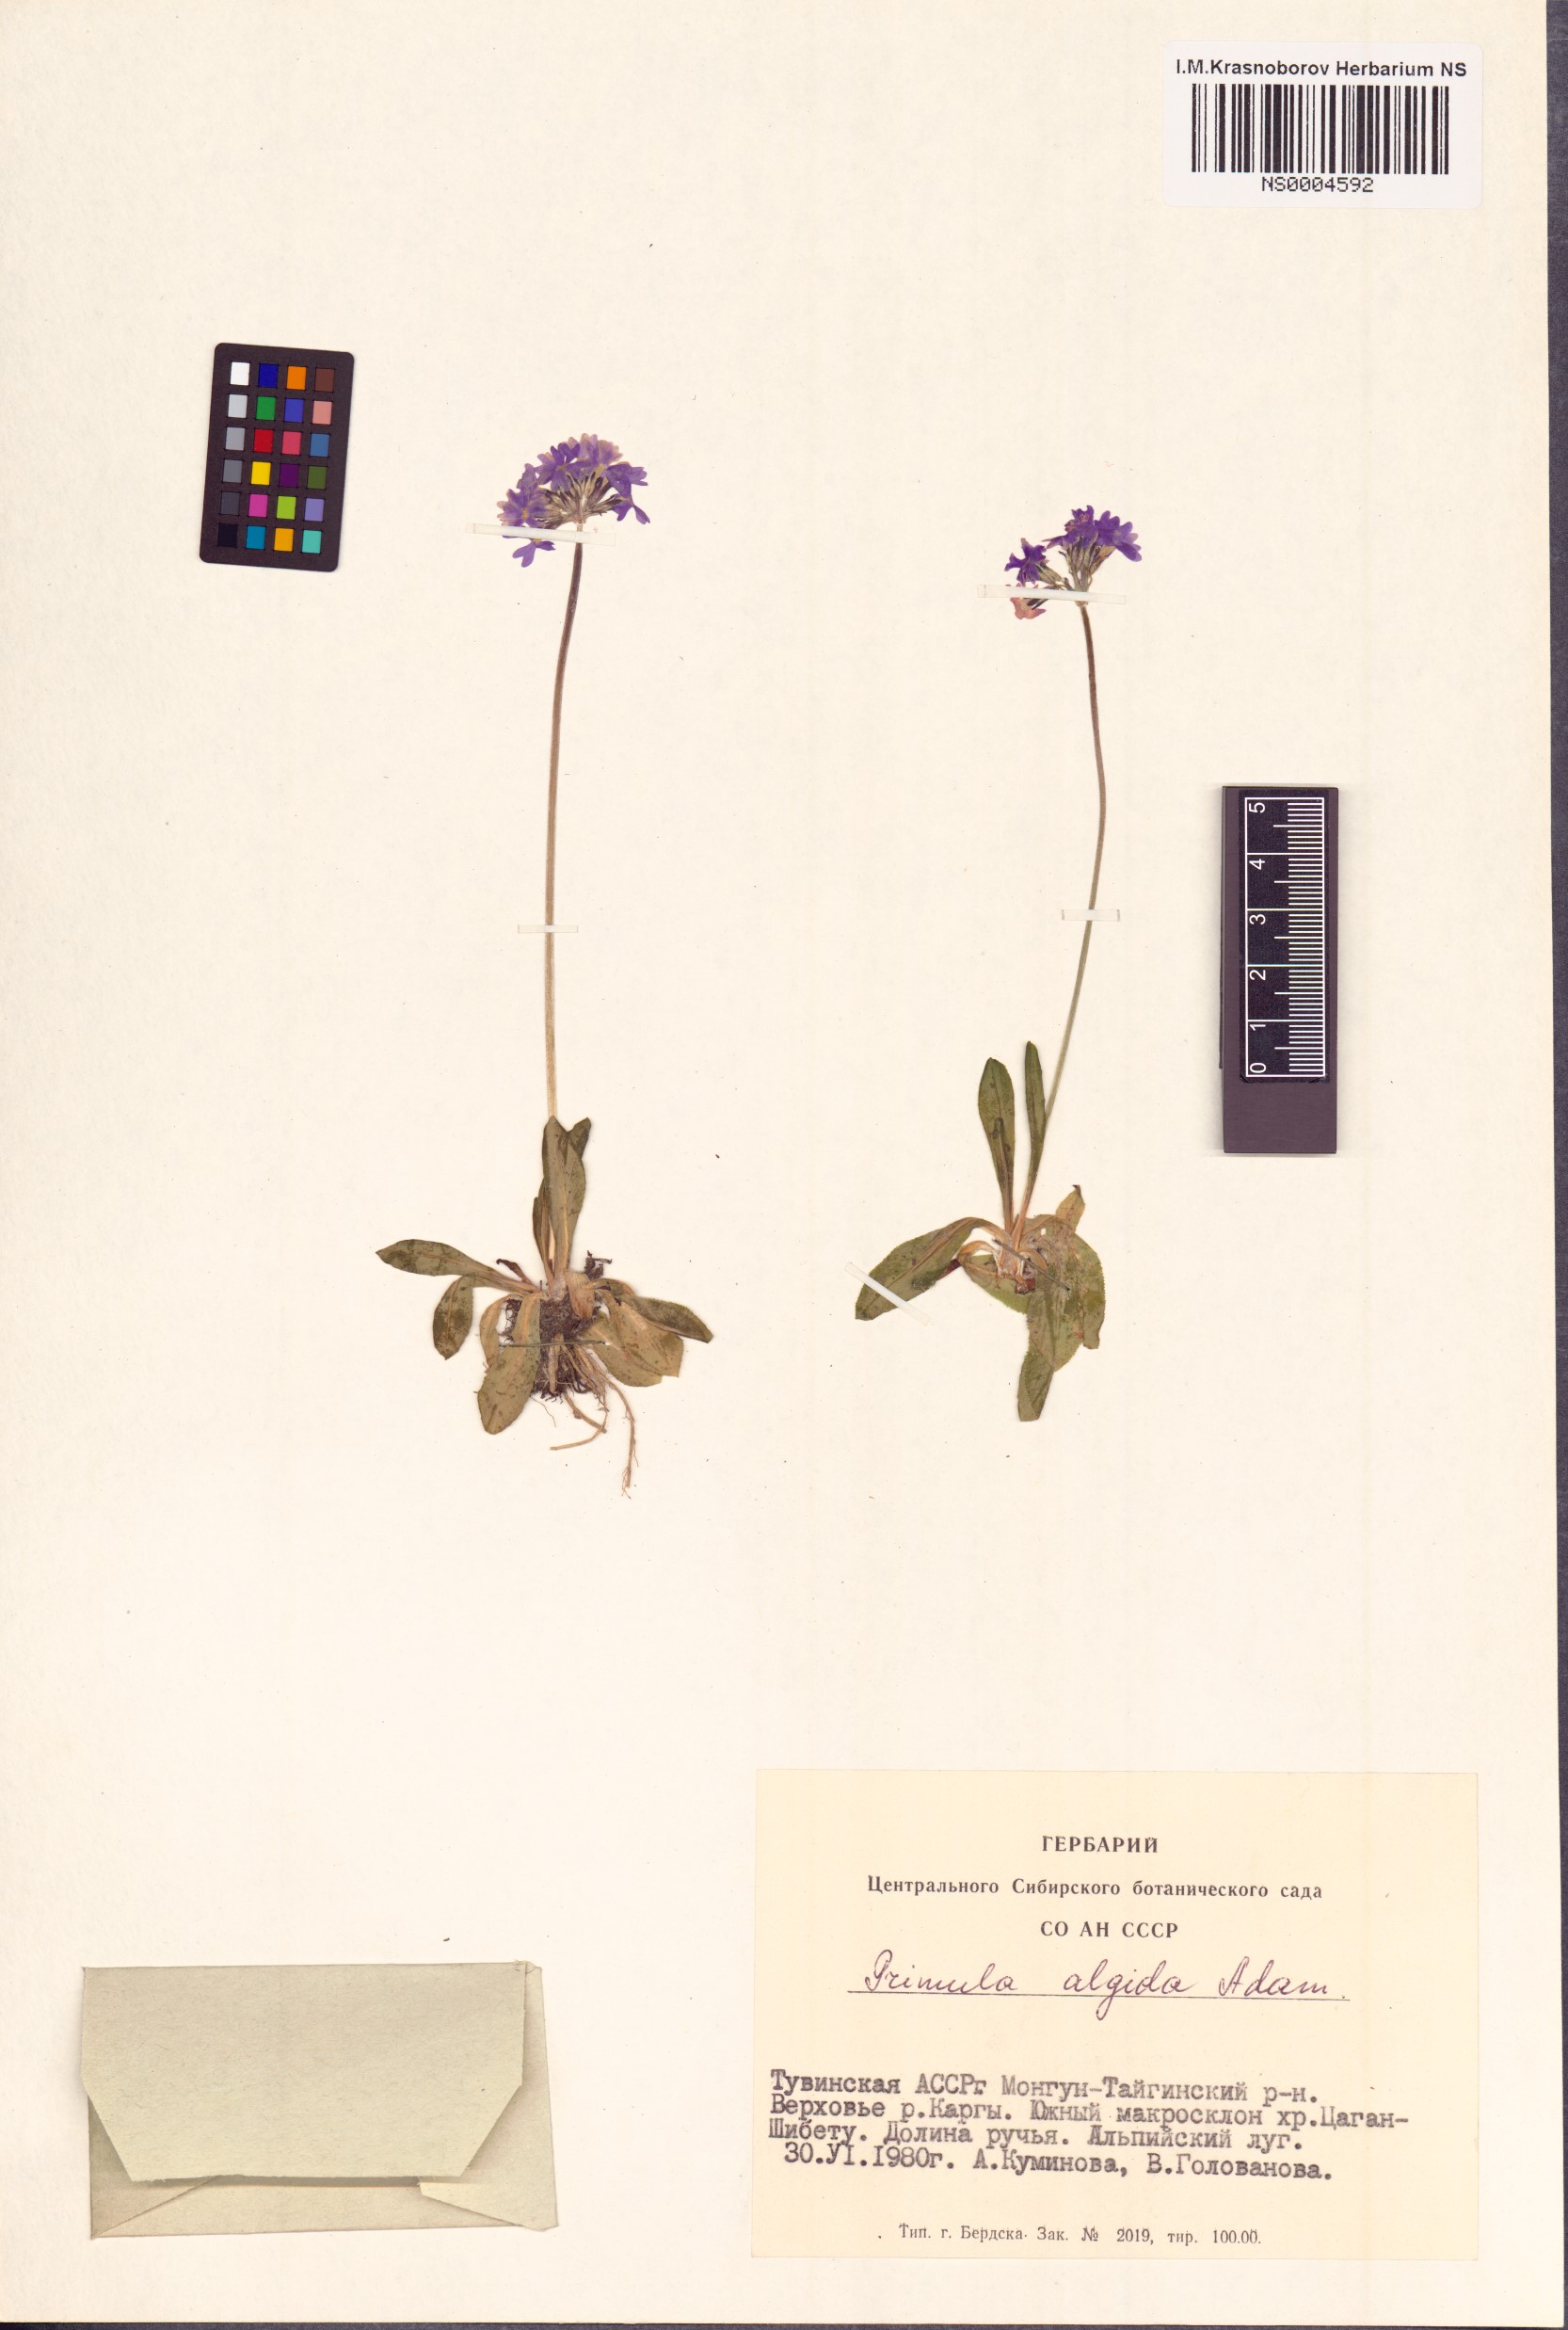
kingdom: Plantae
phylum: Tracheophyta
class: Magnoliopsida
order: Ericales
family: Primulaceae
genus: Primula
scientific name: Primula algida
